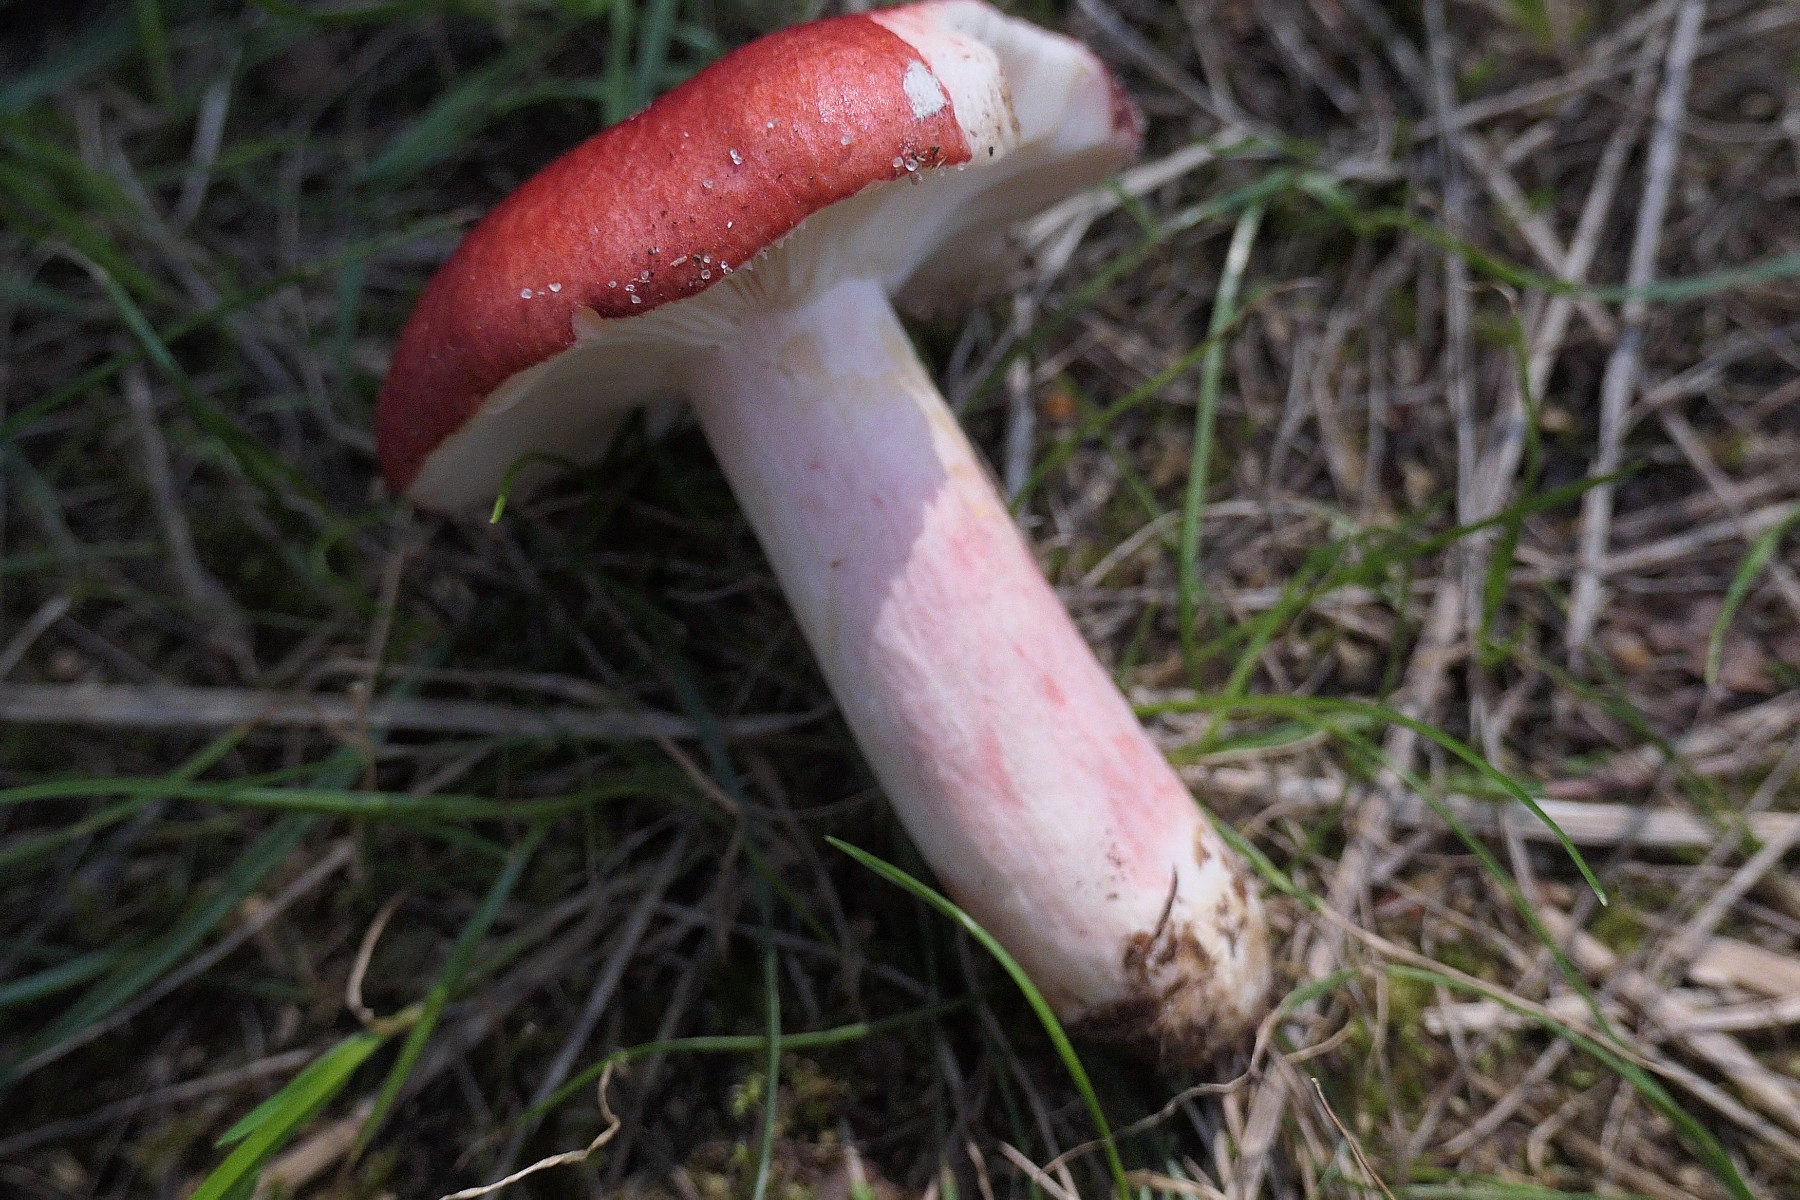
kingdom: Fungi
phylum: Basidiomycota
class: Agaricomycetes
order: Russulales
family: Russulaceae
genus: Russula
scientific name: Russula sanguinea
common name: blodrød skørhat
